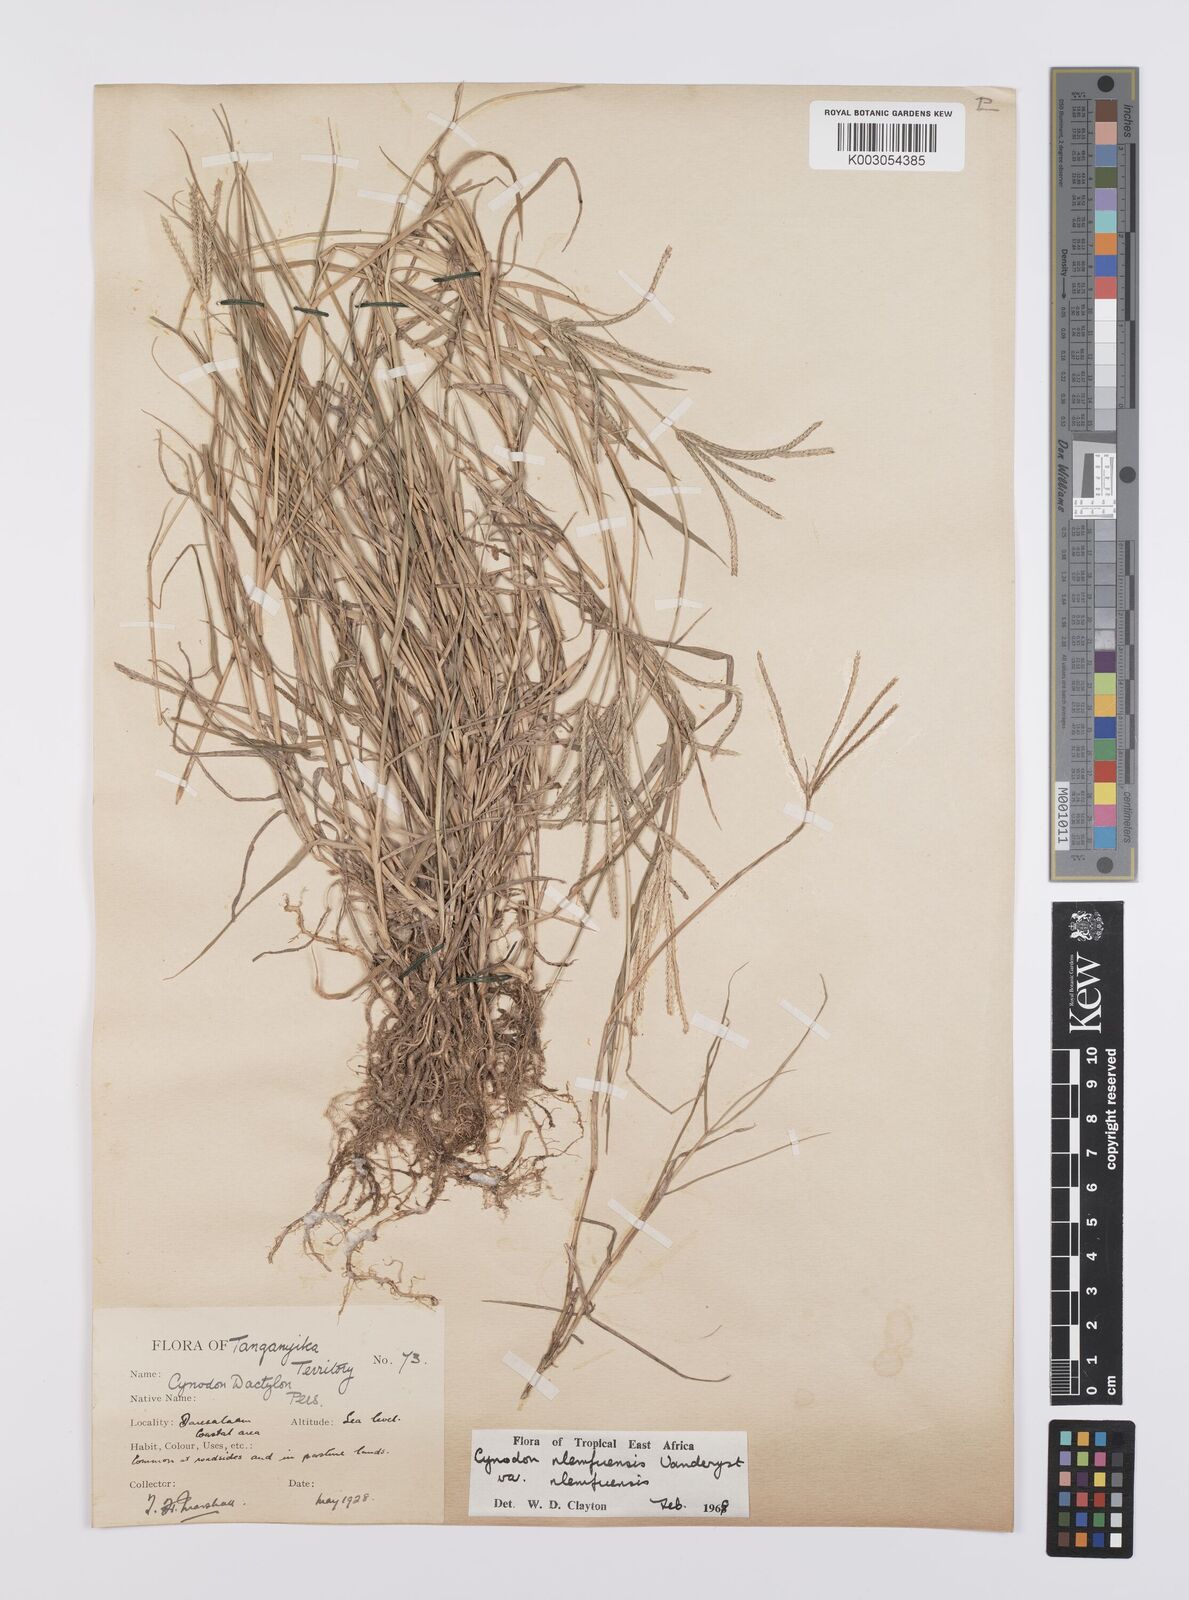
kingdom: Plantae
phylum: Tracheophyta
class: Liliopsida
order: Poales
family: Poaceae
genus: Cynodon
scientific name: Cynodon nlemfuensis
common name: African bermudagrass
